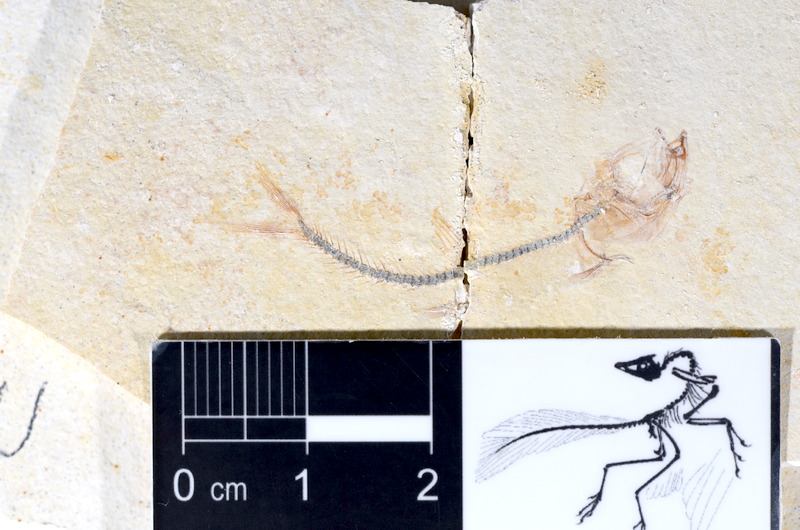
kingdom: Animalia
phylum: Chordata
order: Salmoniformes
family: Orthogonikleithridae
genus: Orthogonikleithrus
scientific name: Orthogonikleithrus hoelli
